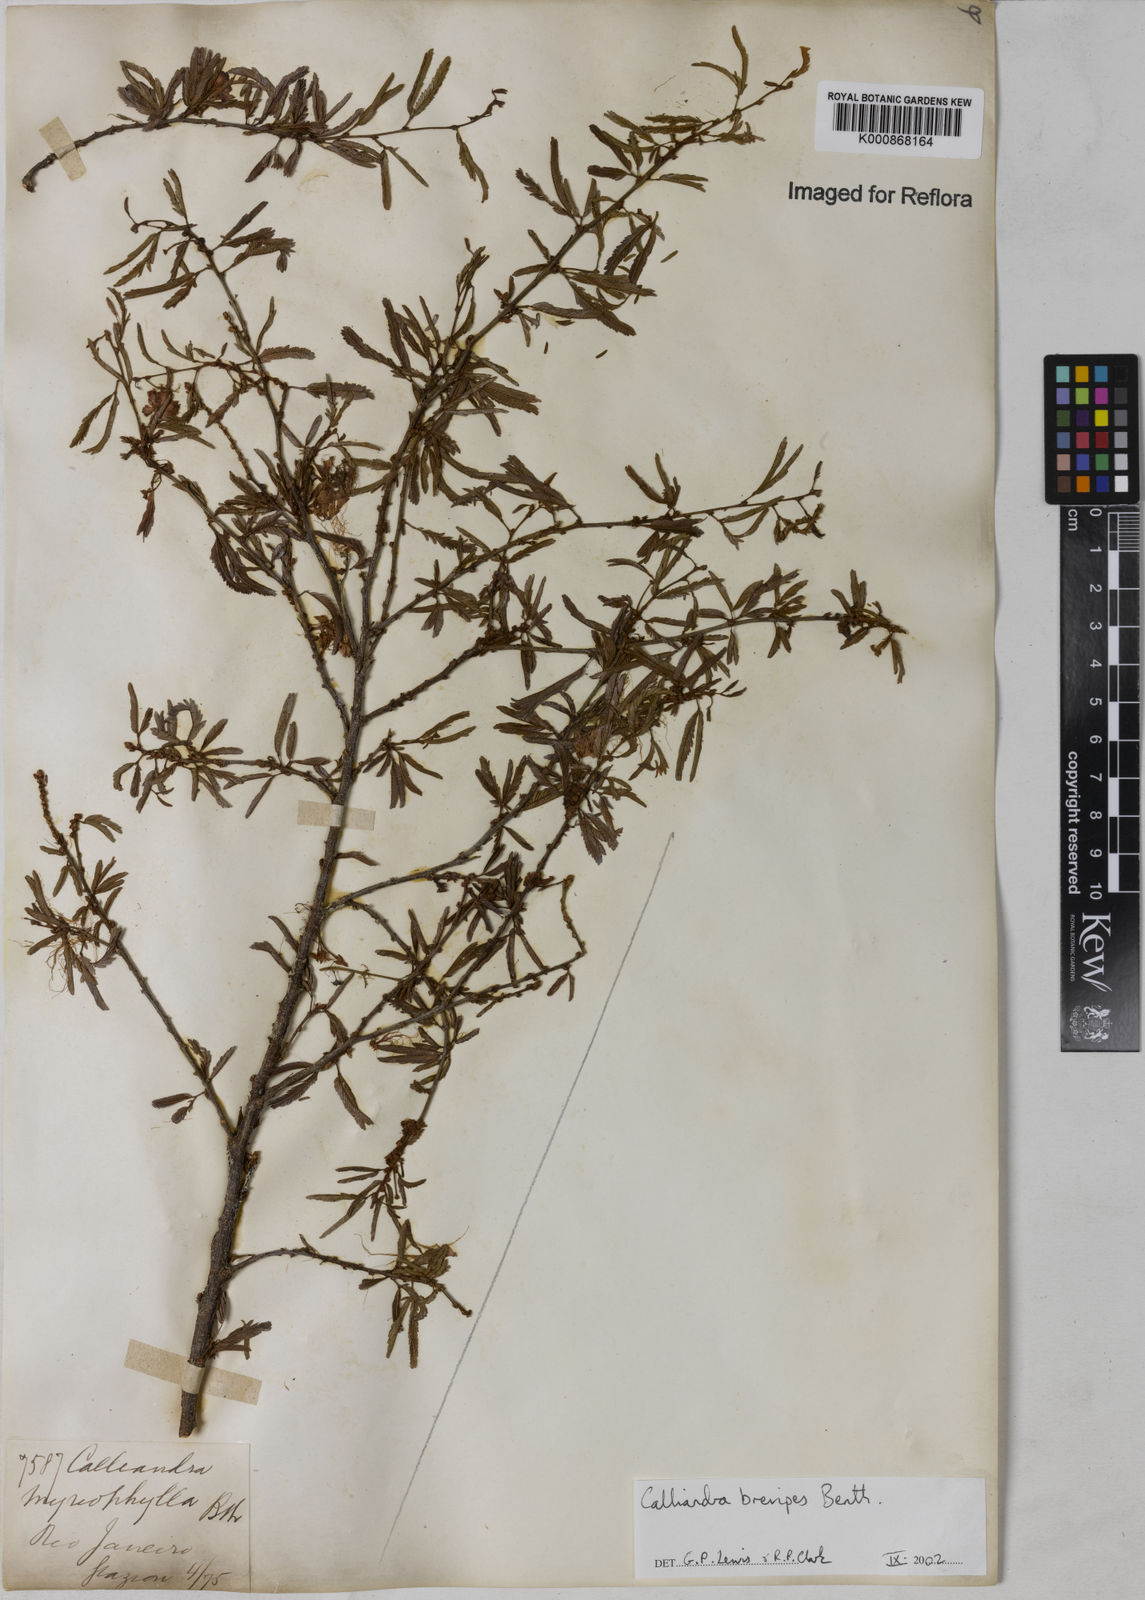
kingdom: Plantae
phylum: Tracheophyta
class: Magnoliopsida
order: Fabales
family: Fabaceae
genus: Calliandra
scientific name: Calliandra selloi
